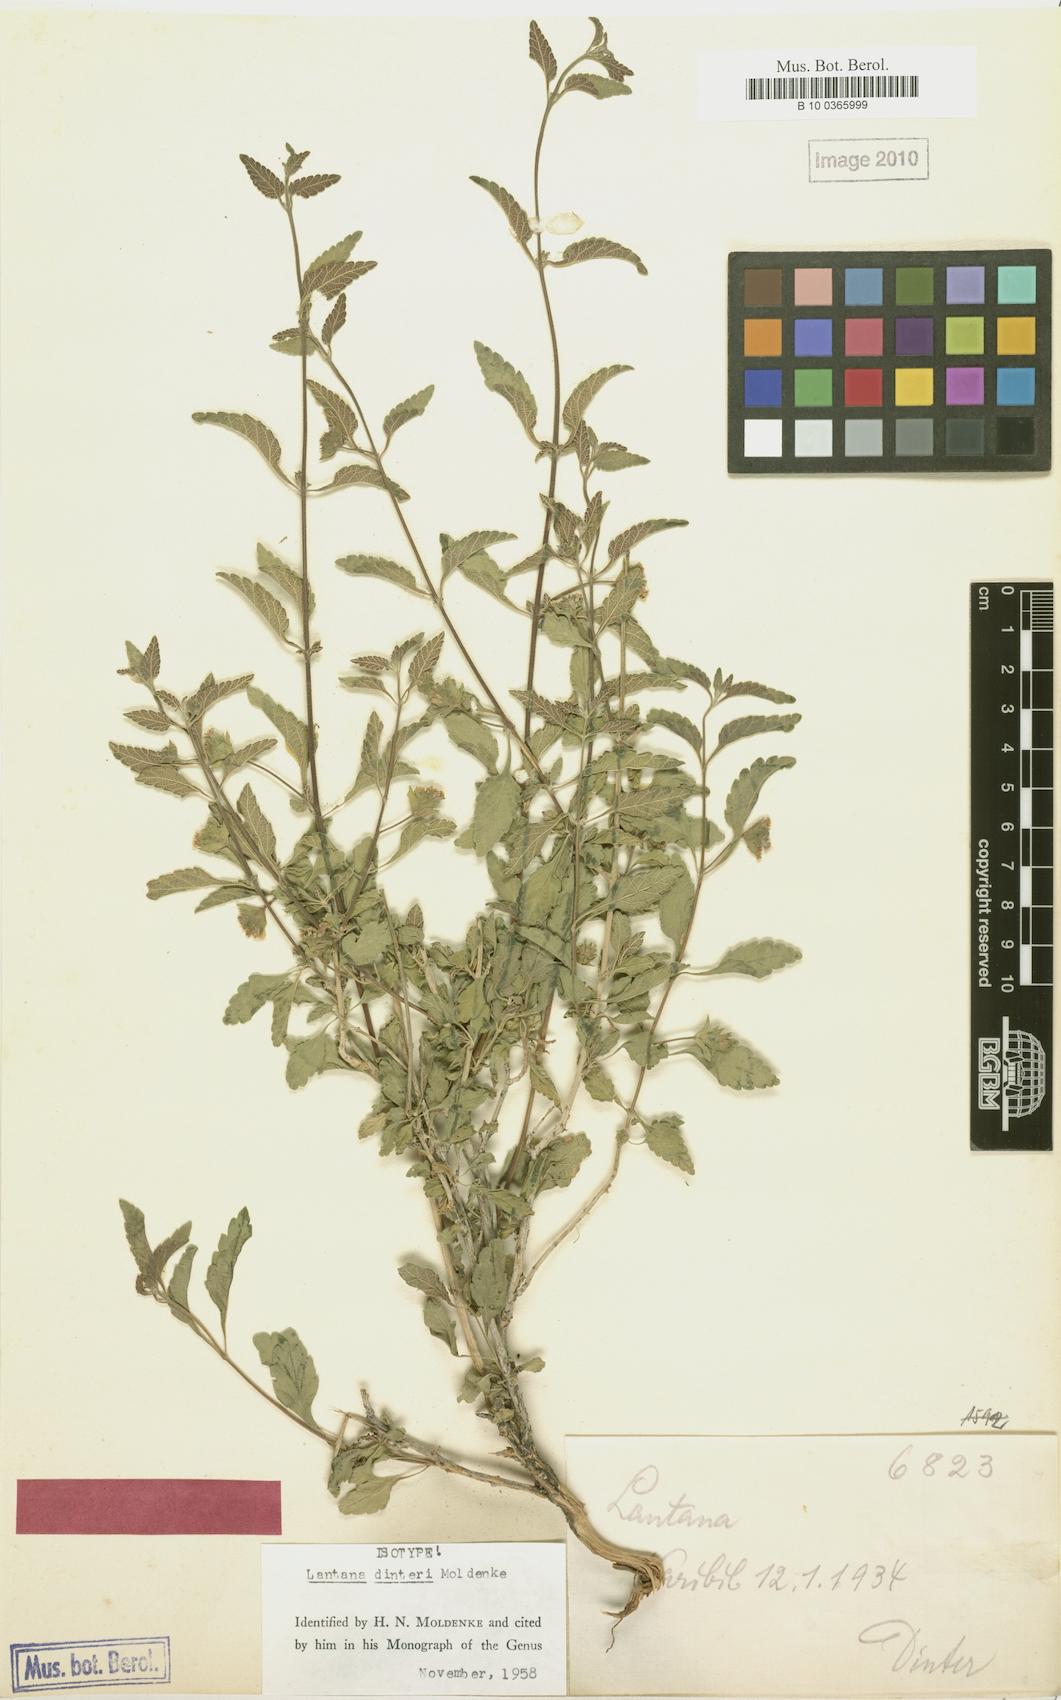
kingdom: Plantae
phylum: Tracheophyta
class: Magnoliopsida
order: Lamiales
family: Verbenaceae
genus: Lantana
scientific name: Lantana dinteri
